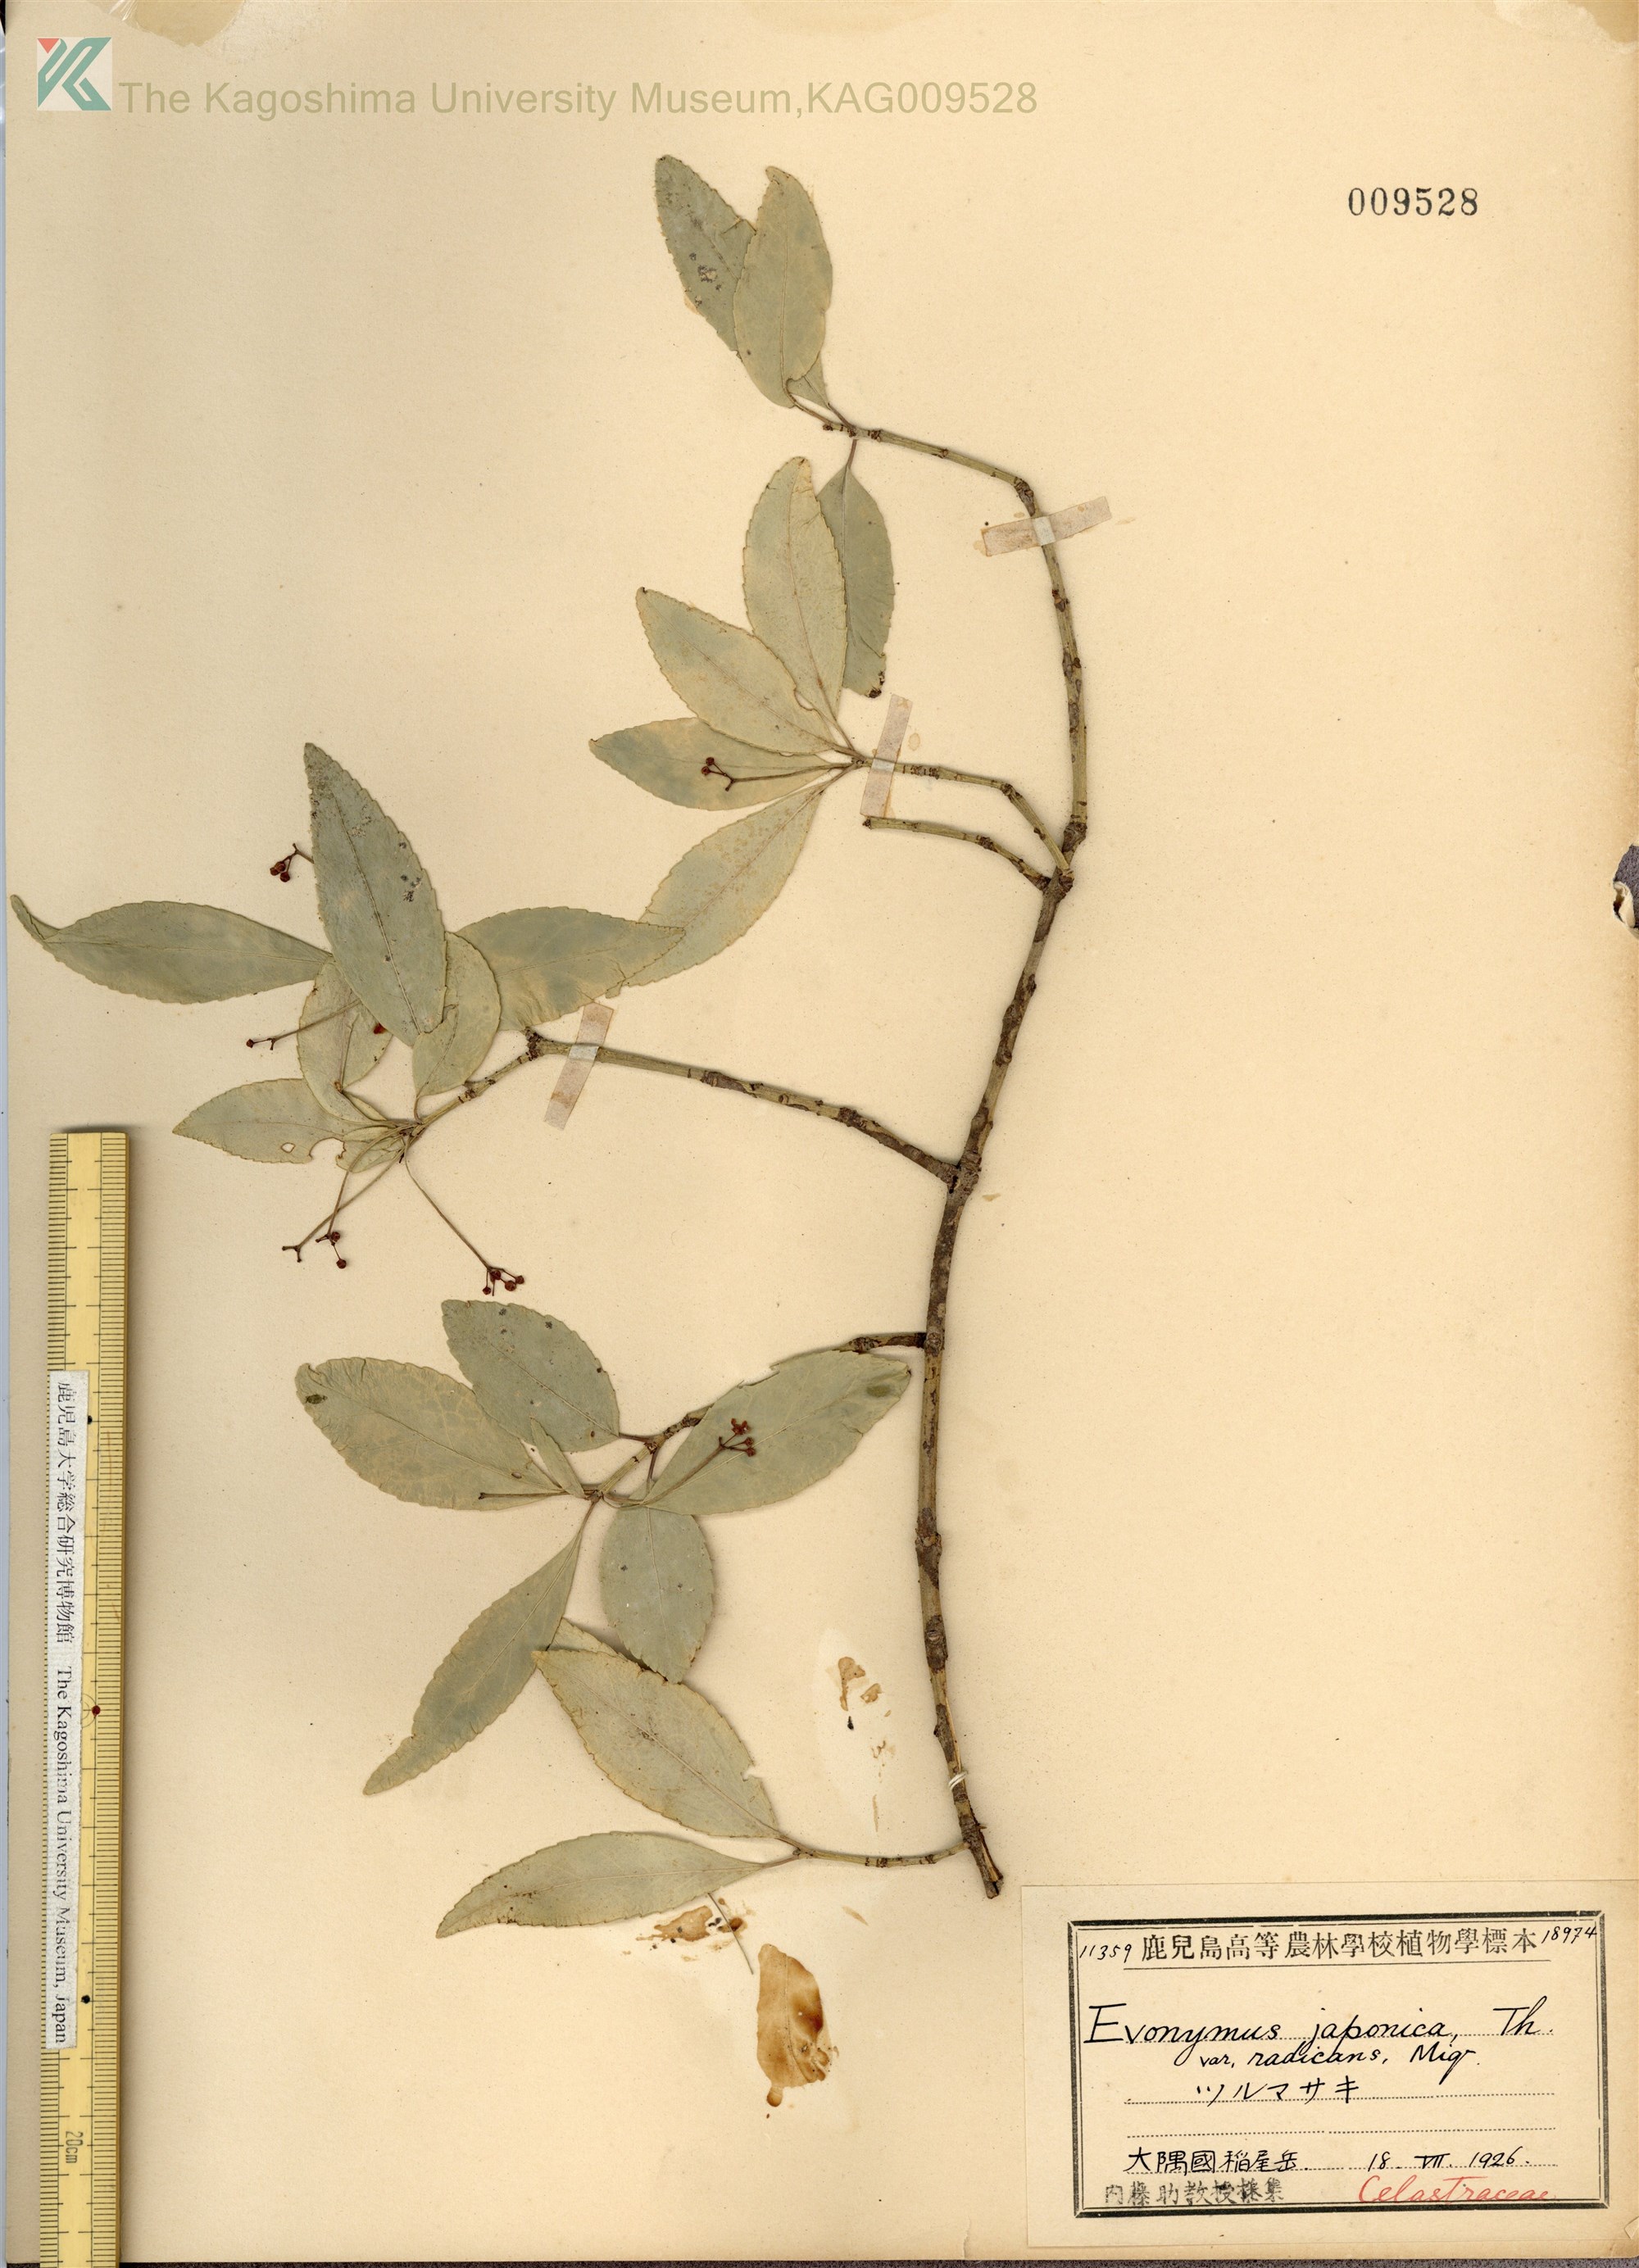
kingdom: Plantae
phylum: Tracheophyta
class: Magnoliopsida
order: Celastrales
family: Celastraceae
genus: Euonymus
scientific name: Euonymus fortunei
